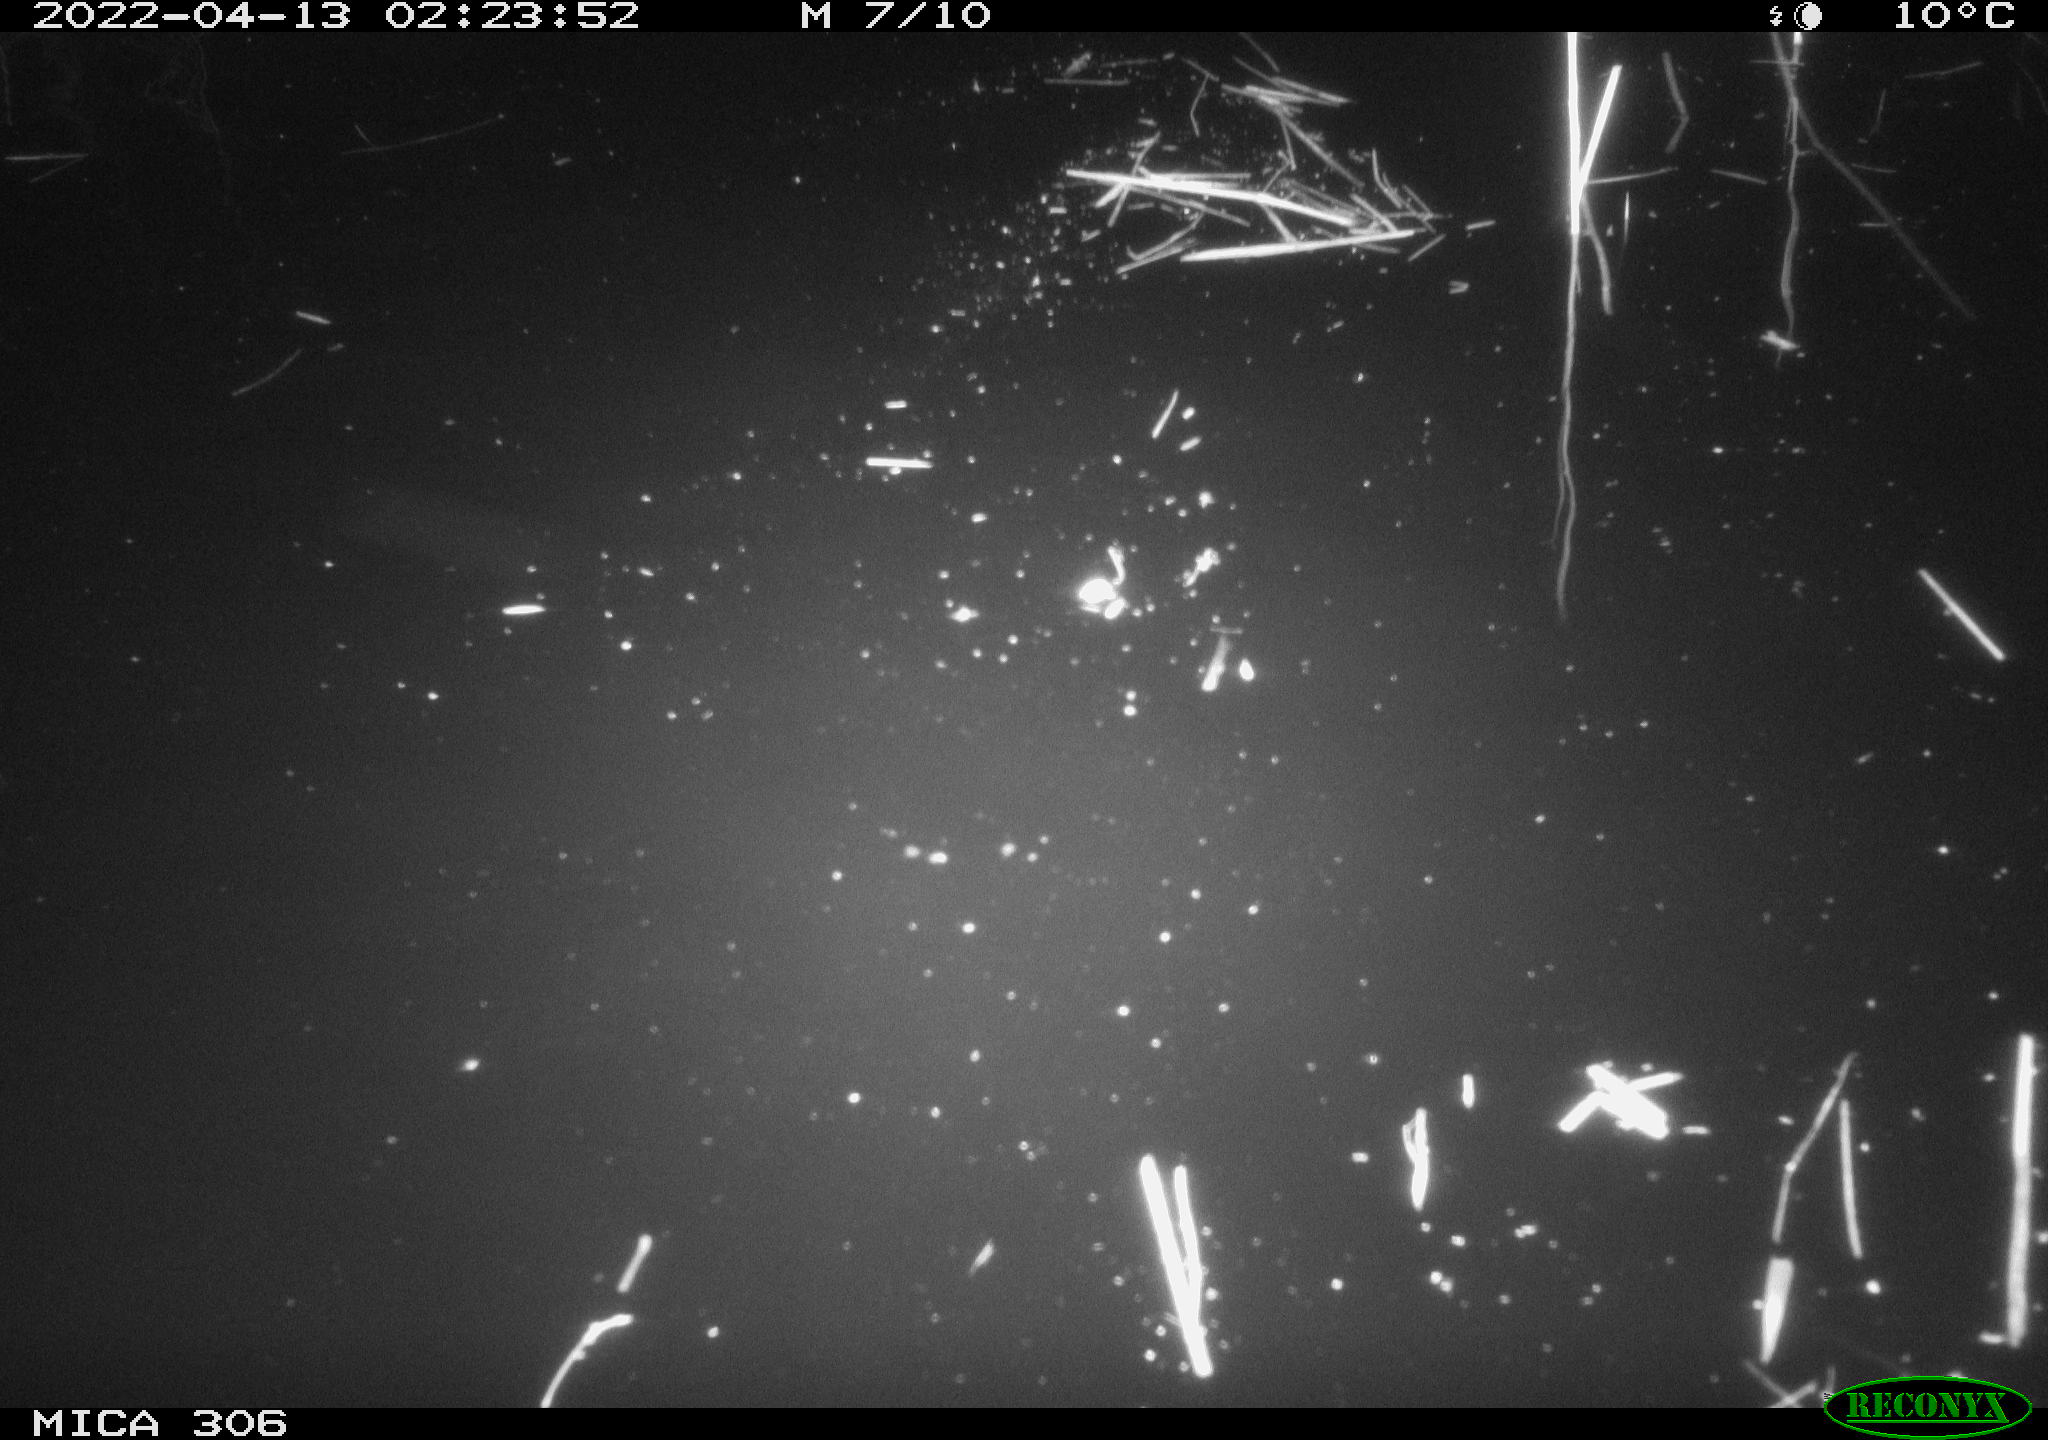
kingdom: Animalia
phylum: Chordata
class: Mammalia
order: Rodentia
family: Cricetidae
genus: Ondatra
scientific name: Ondatra zibethicus
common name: Muskrat
